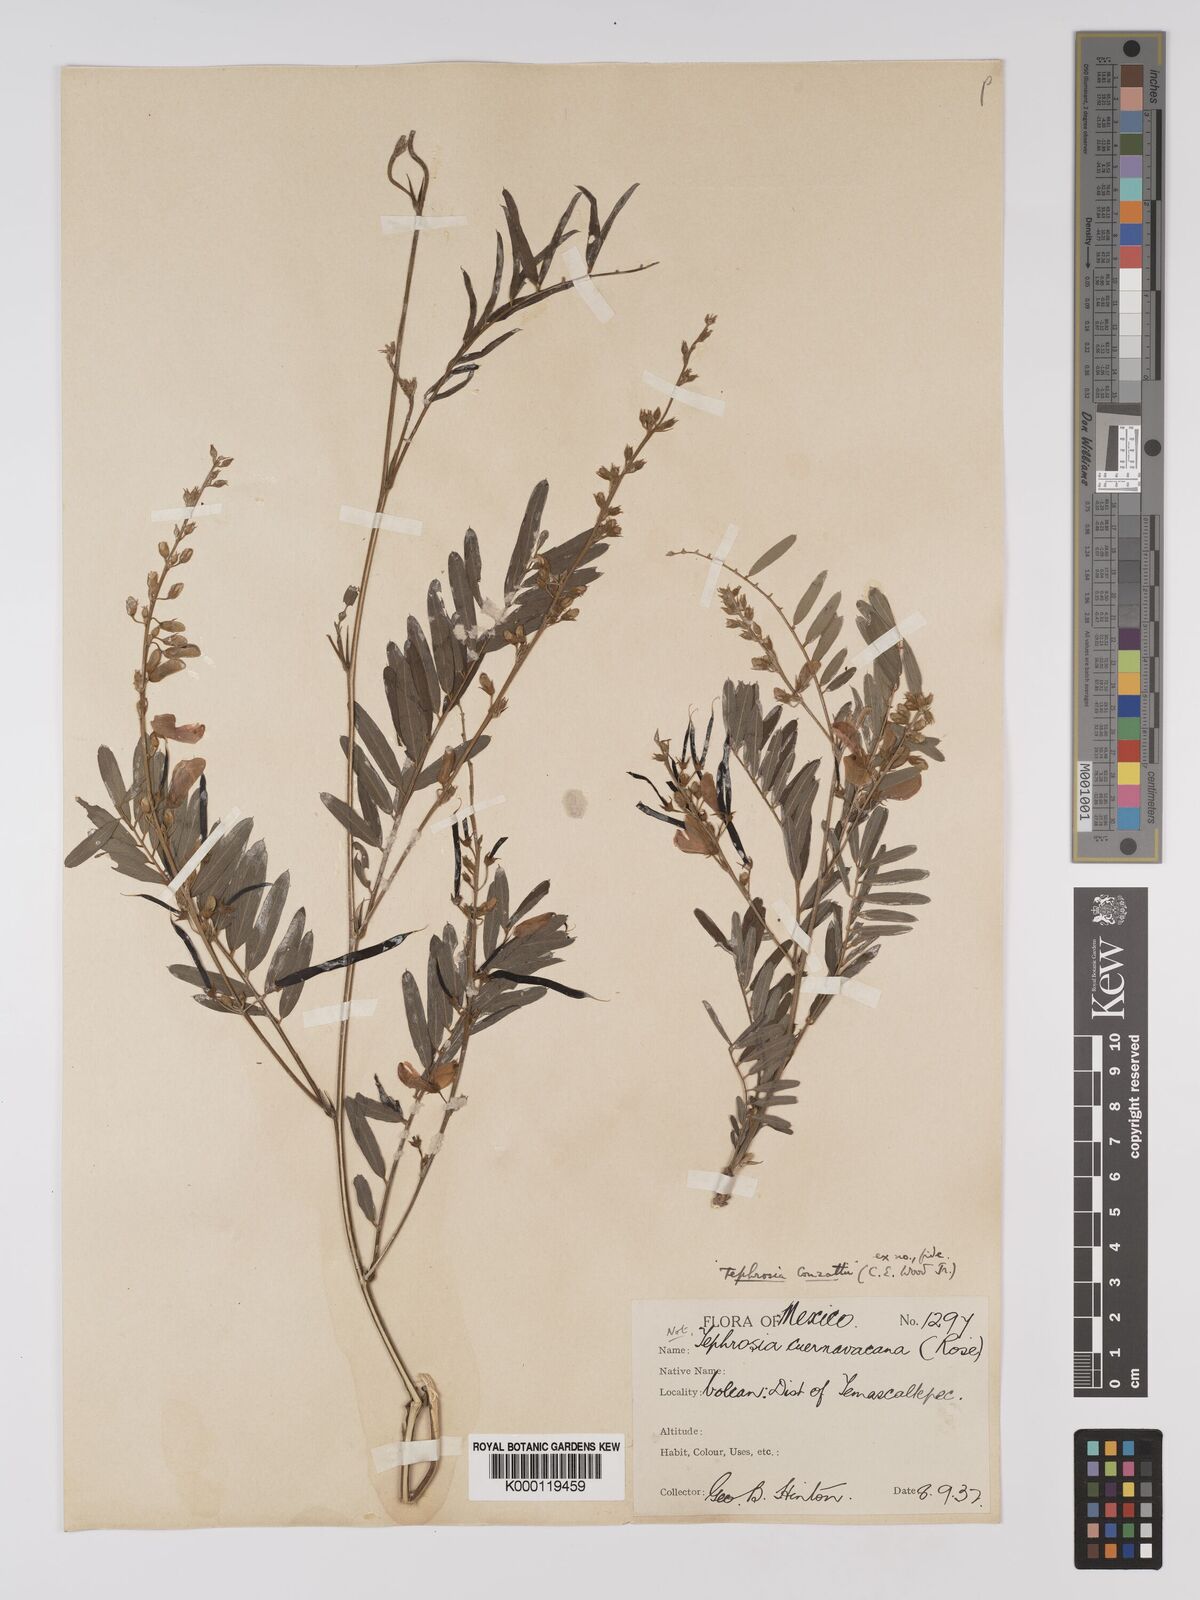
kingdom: Plantae
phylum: Tracheophyta
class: Magnoliopsida
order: Fabales
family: Fabaceae
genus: Tephrosia
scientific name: Tephrosia conzattii
